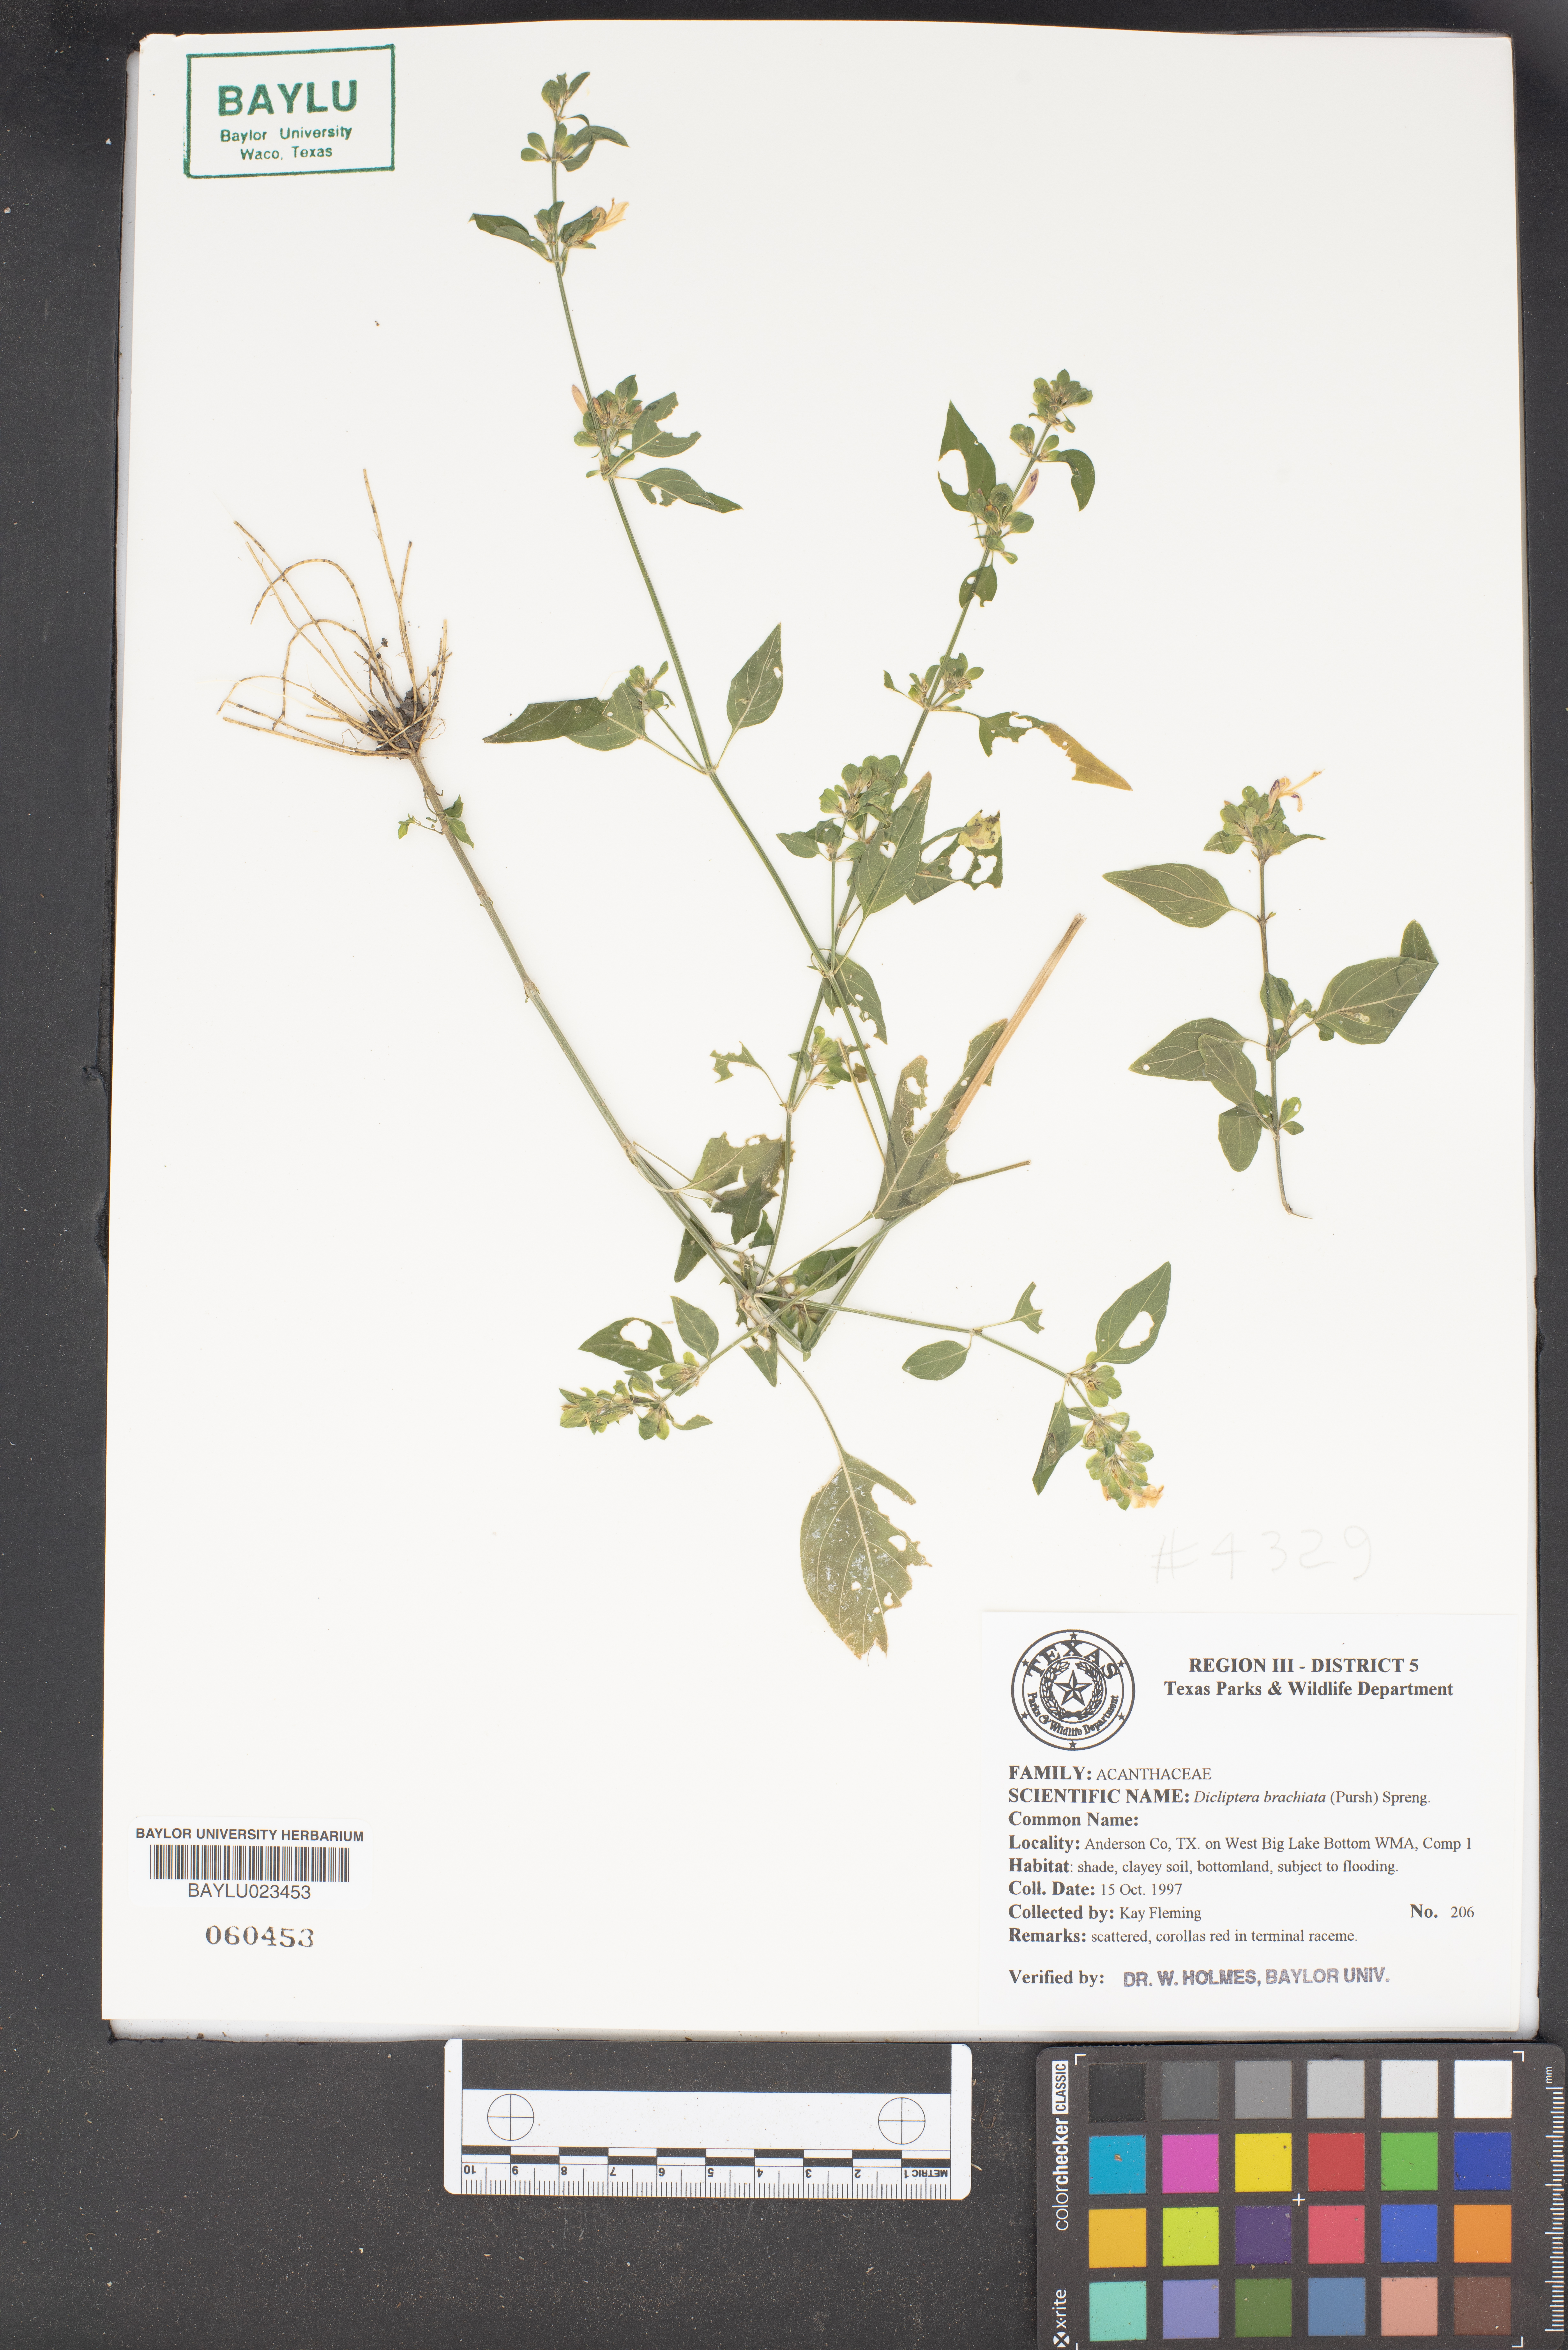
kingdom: Plantae
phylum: Tracheophyta
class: Magnoliopsida
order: Lamiales
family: Acanthaceae
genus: Dicliptera
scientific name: Dicliptera brachiata
